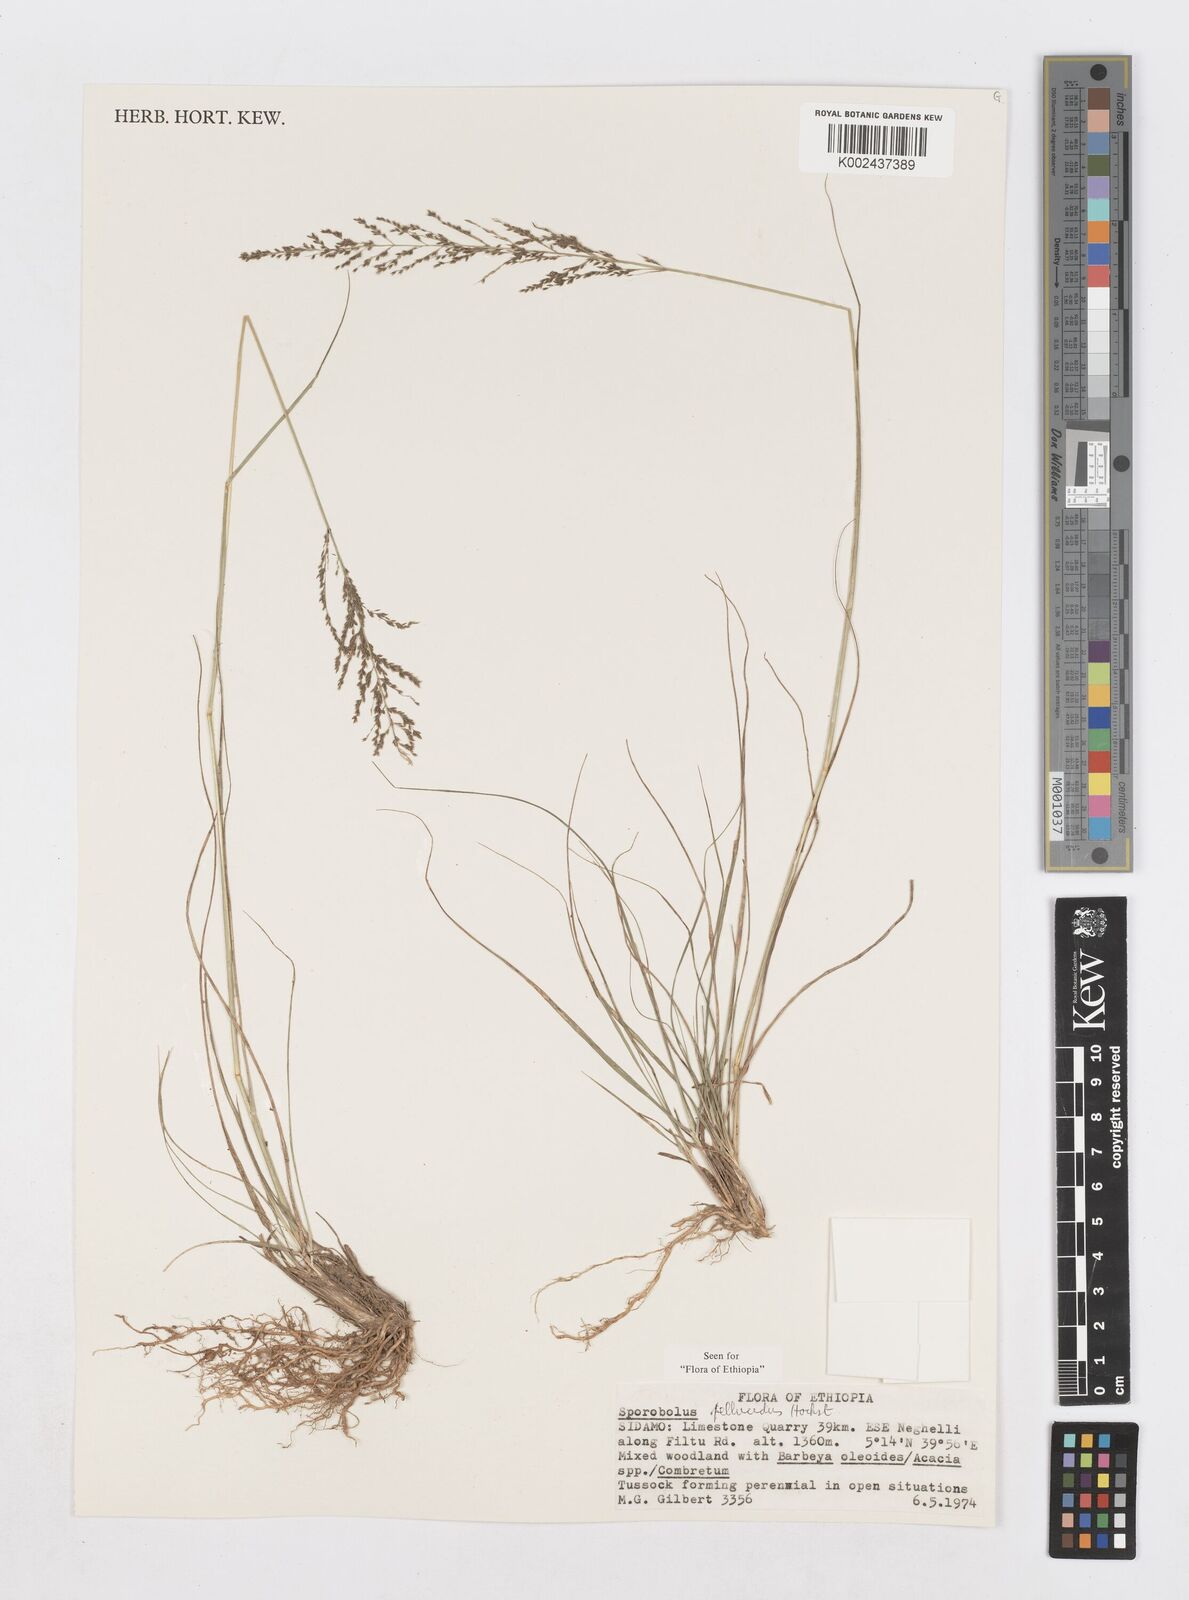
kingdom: Plantae
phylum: Tracheophyta
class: Liliopsida
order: Poales
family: Poaceae
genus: Sporobolus
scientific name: Sporobolus pellucidus
